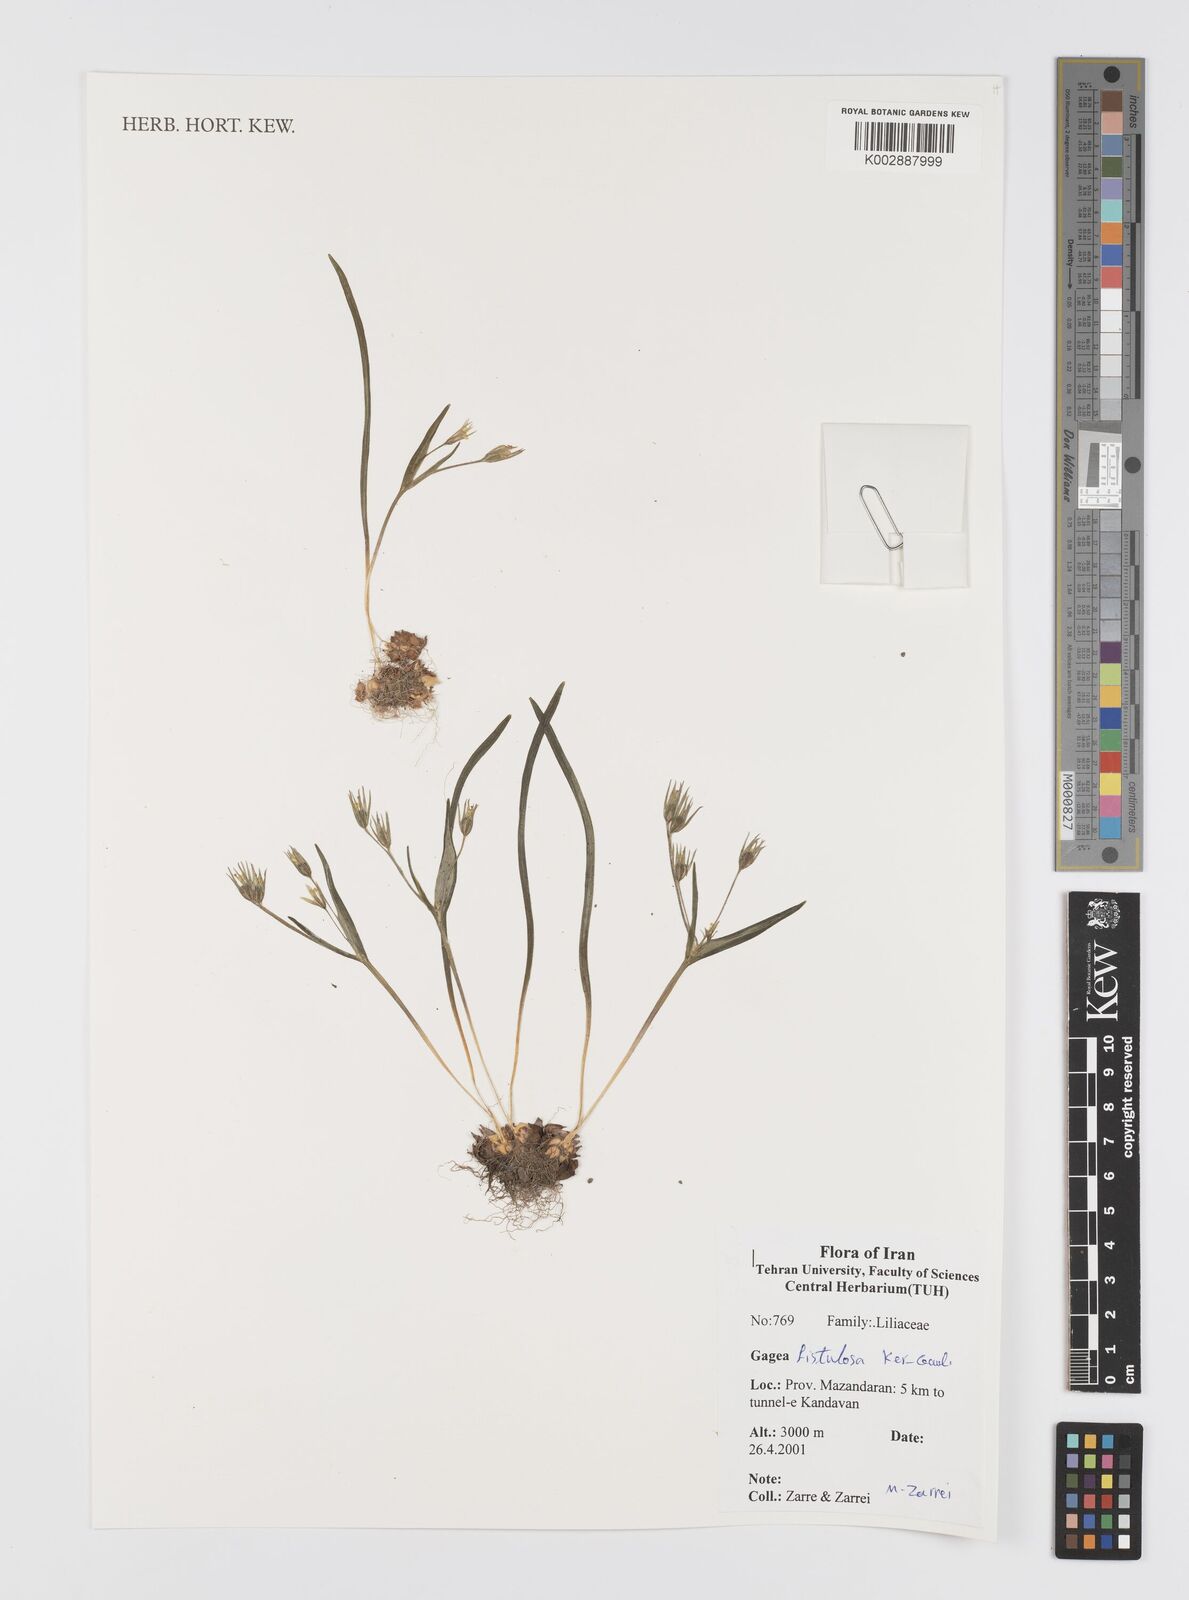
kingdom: Plantae
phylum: Tracheophyta
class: Liliopsida
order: Liliales
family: Liliaceae
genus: Gagea
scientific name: Gagea bohemica
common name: Early star-of-bethlehem
